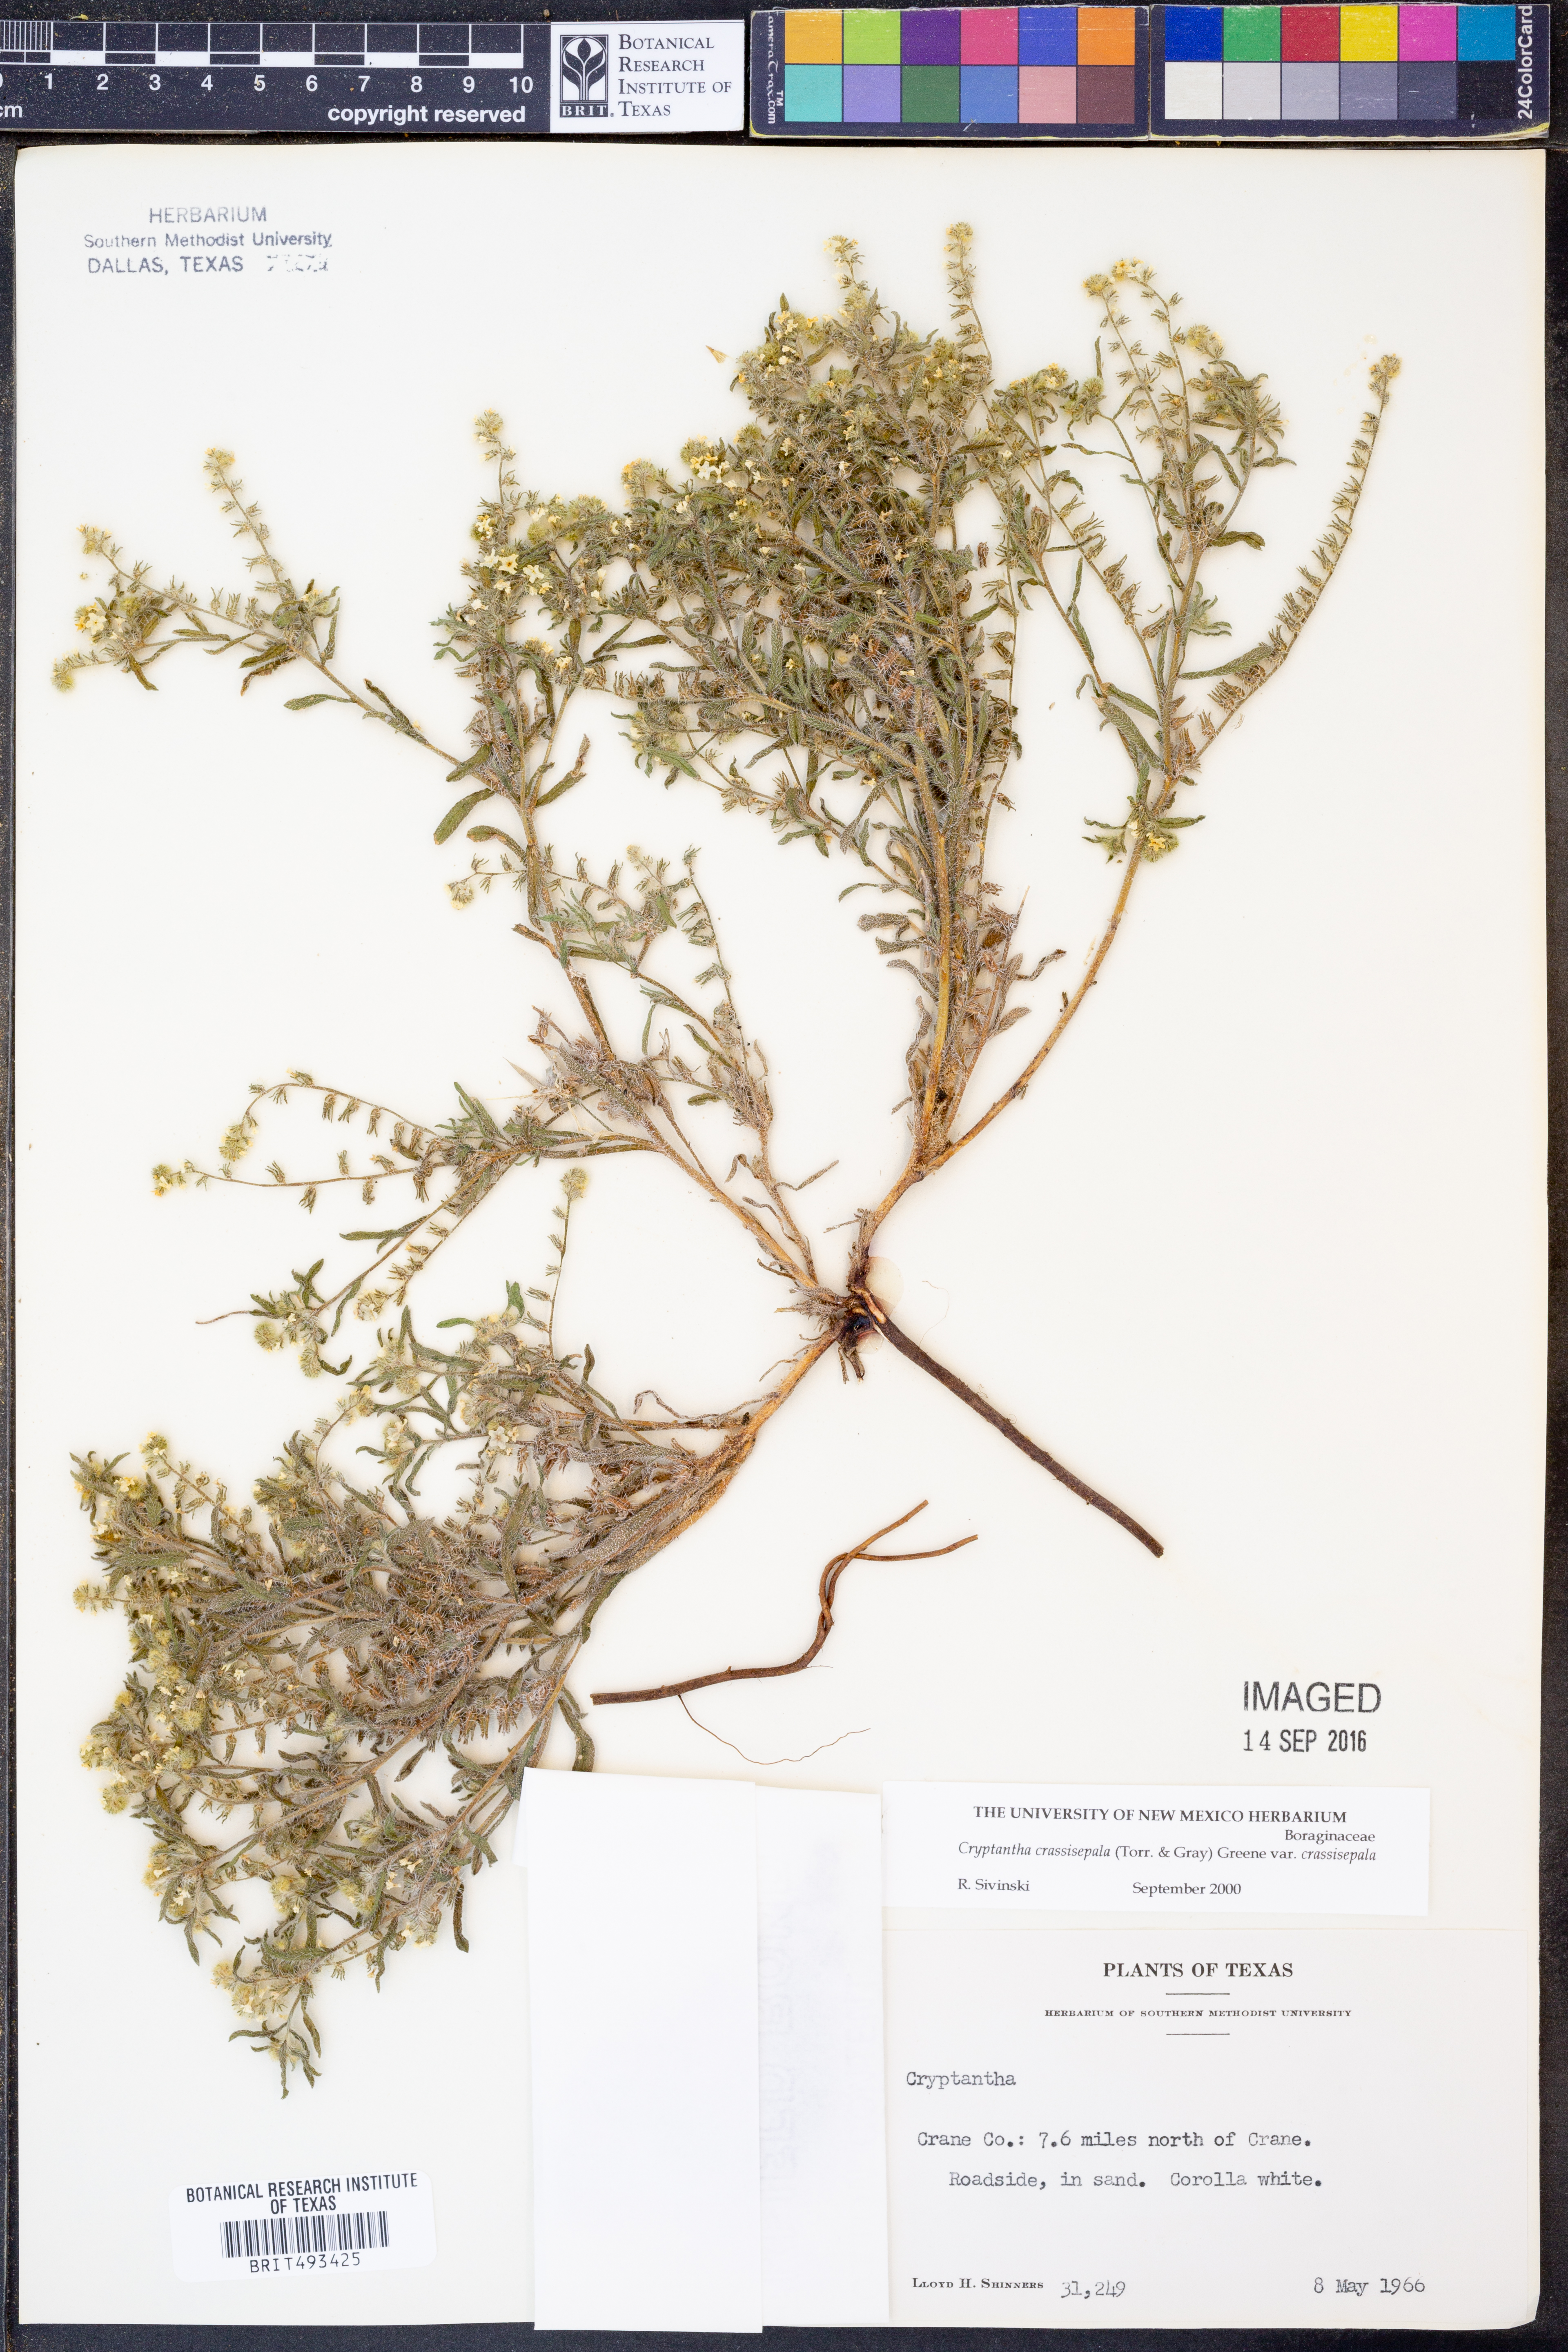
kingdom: Plantae
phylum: Tracheophyta
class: Magnoliopsida
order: Boraginales
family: Boraginaceae
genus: Cryptantha
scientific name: Cryptantha crassisepala
